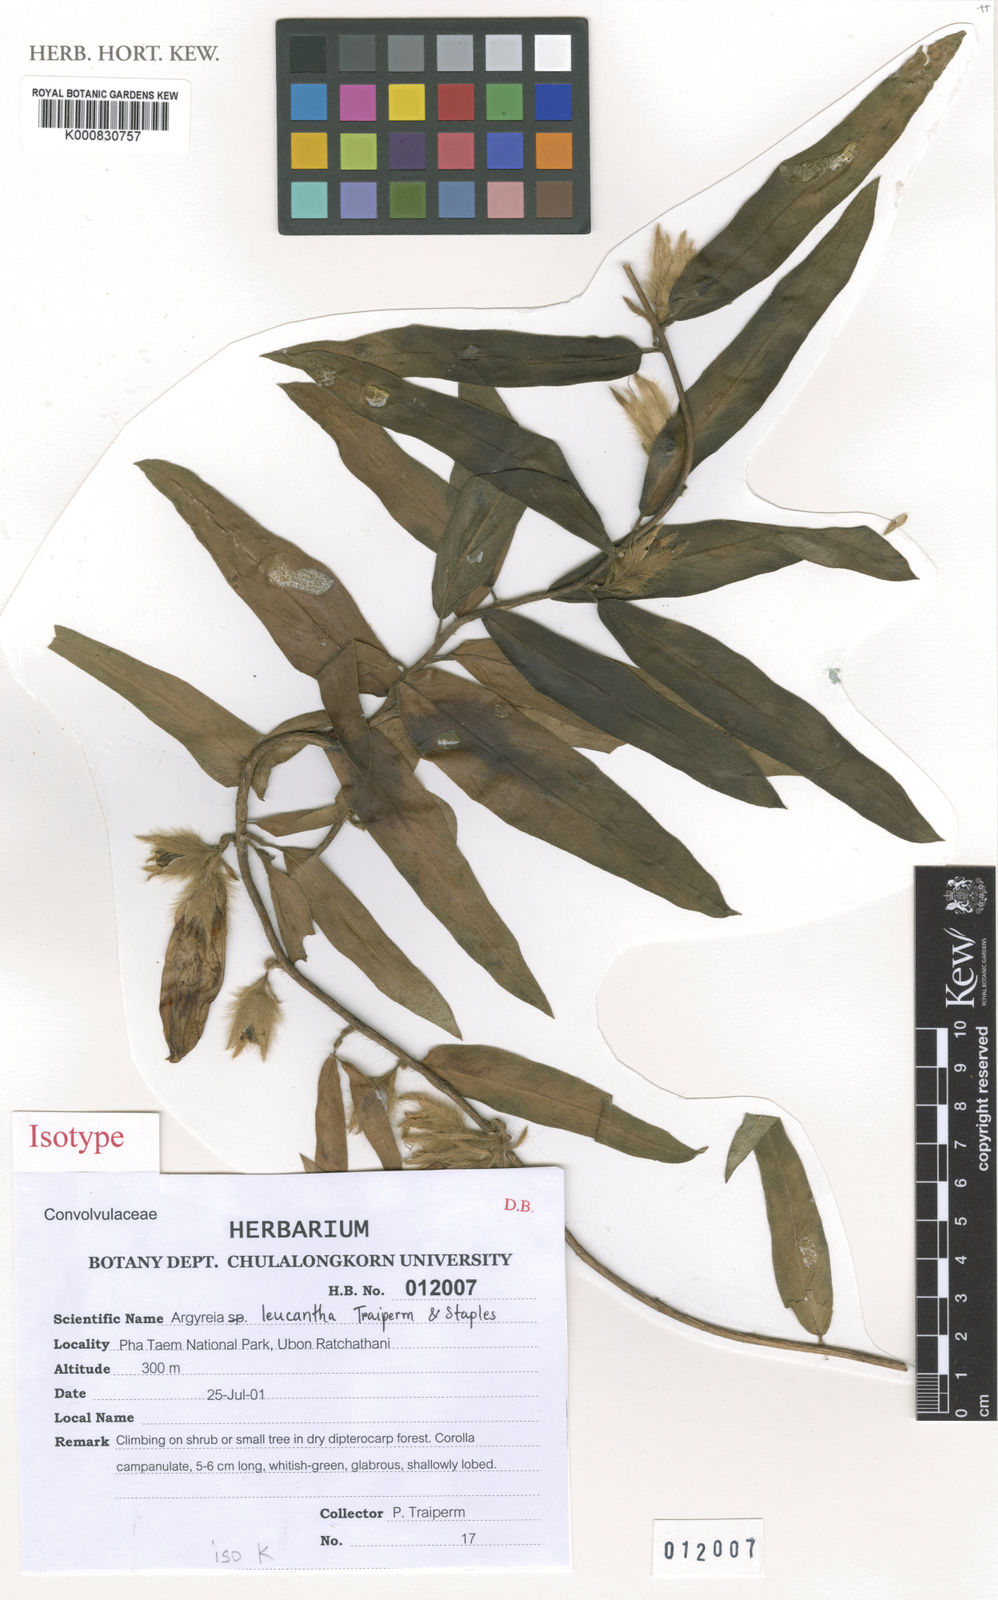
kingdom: Plantae
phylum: Tracheophyta
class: Magnoliopsida
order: Solanales
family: Convolvulaceae
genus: Argyreia
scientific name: Argyreia leucantha
